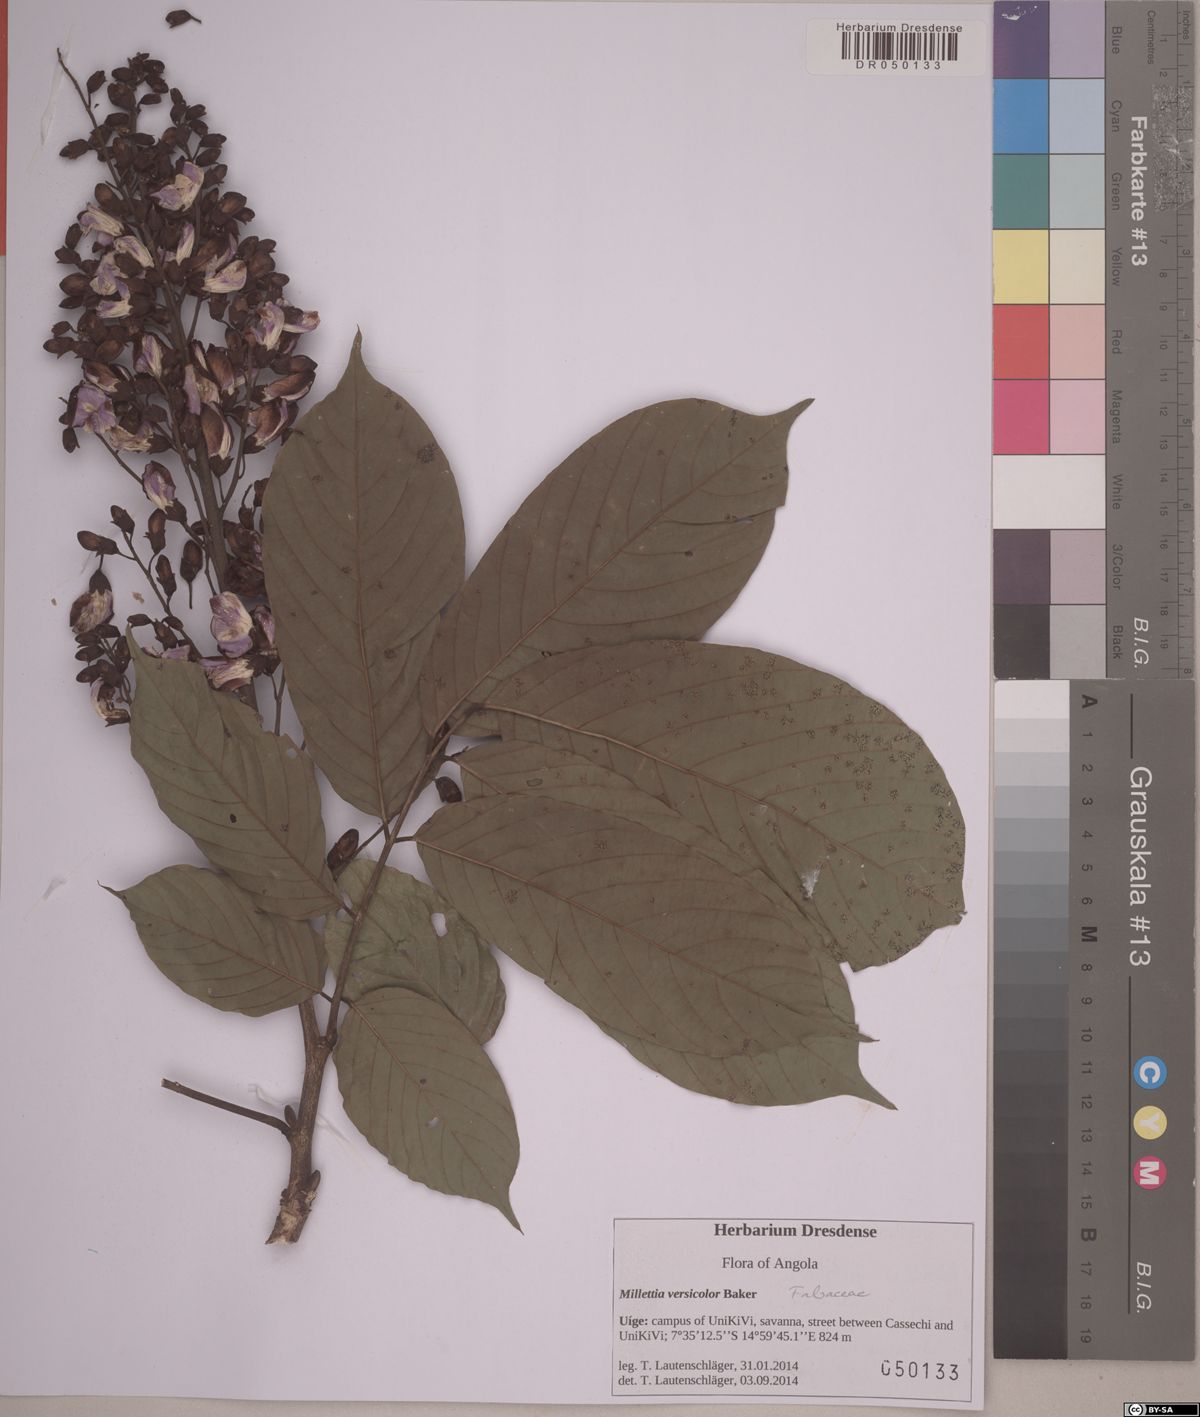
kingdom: Plantae
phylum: Tracheophyta
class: Magnoliopsida
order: Fabales
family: Fabaceae
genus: Millettia
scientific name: Millettia versicolor
